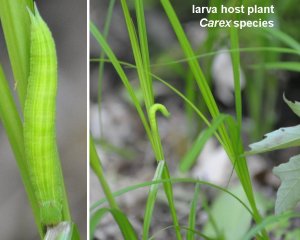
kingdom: Animalia
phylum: Arthropoda
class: Insecta
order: Lepidoptera
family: Nymphalidae
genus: Lethe
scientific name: Lethe anthedon
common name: Northern Pearly-Eye
